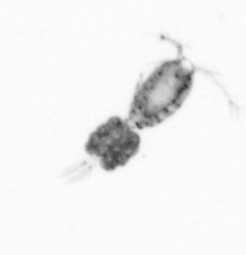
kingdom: Animalia
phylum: Arthropoda
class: Copepoda
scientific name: Copepoda
